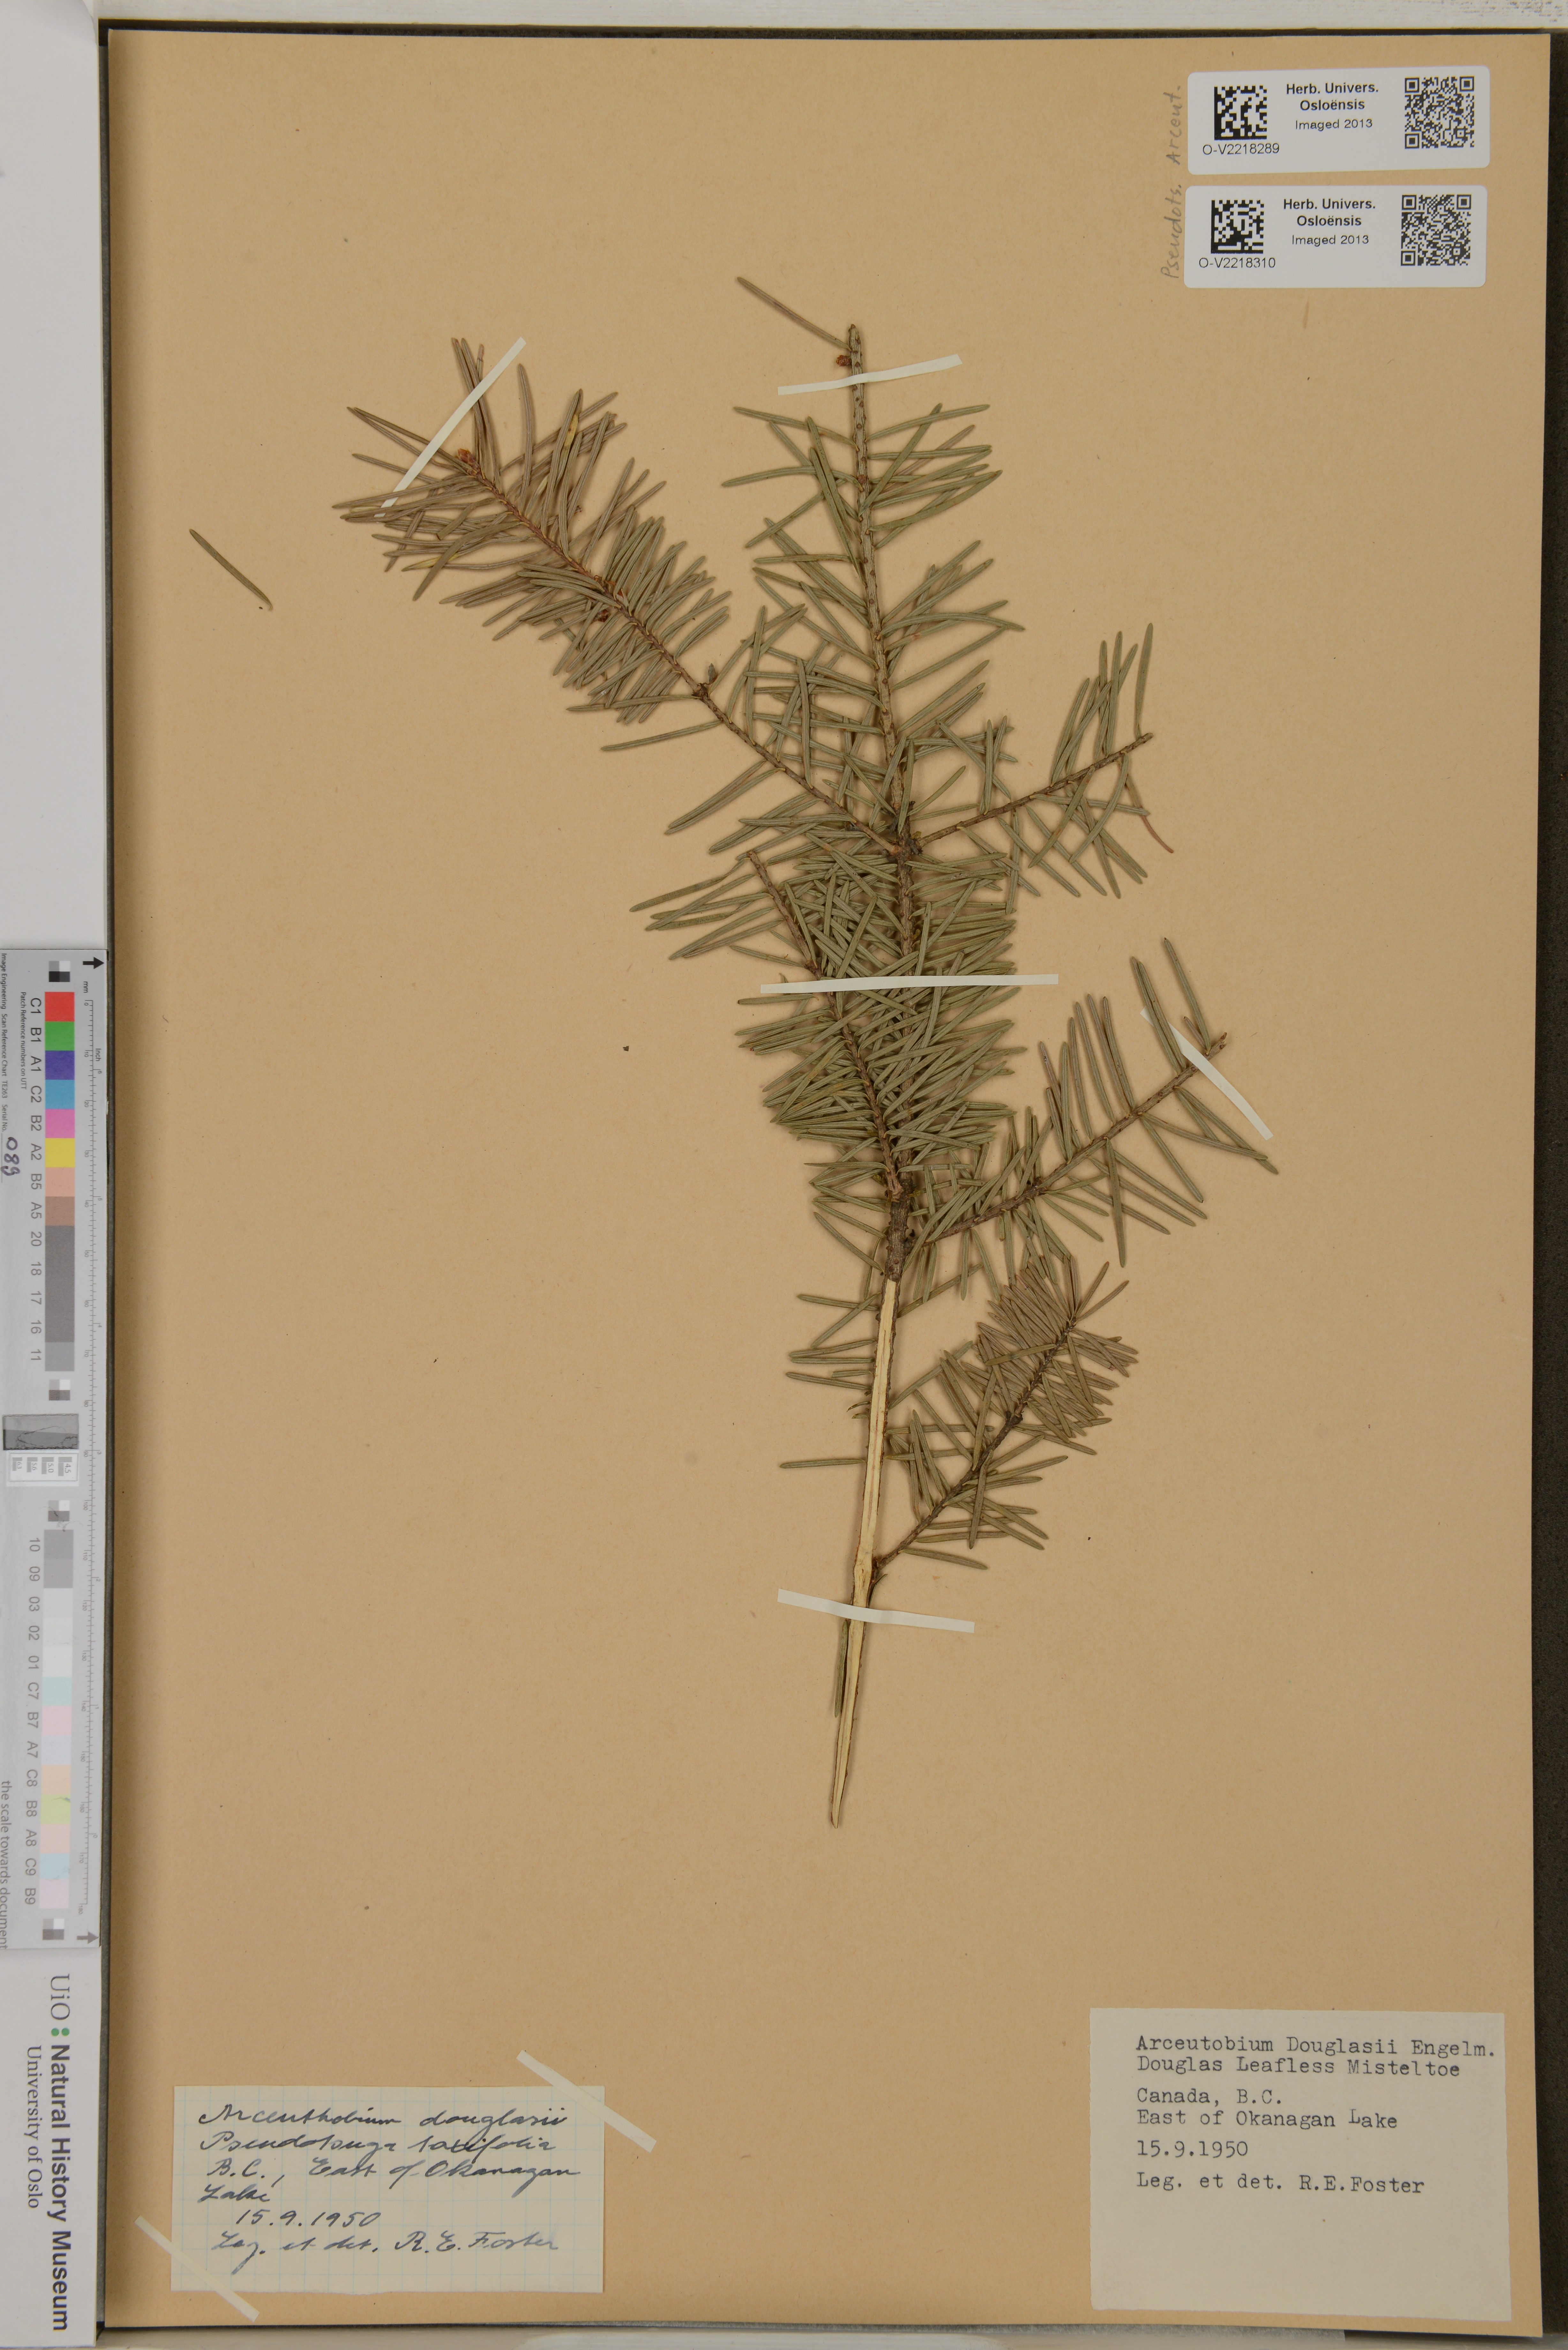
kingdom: Plantae
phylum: Tracheophyta
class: Magnoliopsida
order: Santalales
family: Viscaceae
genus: Arceuthobium
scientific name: Arceuthobium douglasii
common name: Douglas' dwarf mistletoe
